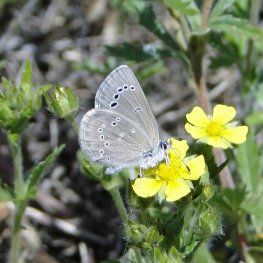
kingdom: Animalia
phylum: Arthropoda
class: Insecta
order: Lepidoptera
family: Lycaenidae
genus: Glaucopsyche
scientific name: Glaucopsyche lygdamus
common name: Silvery Blue
